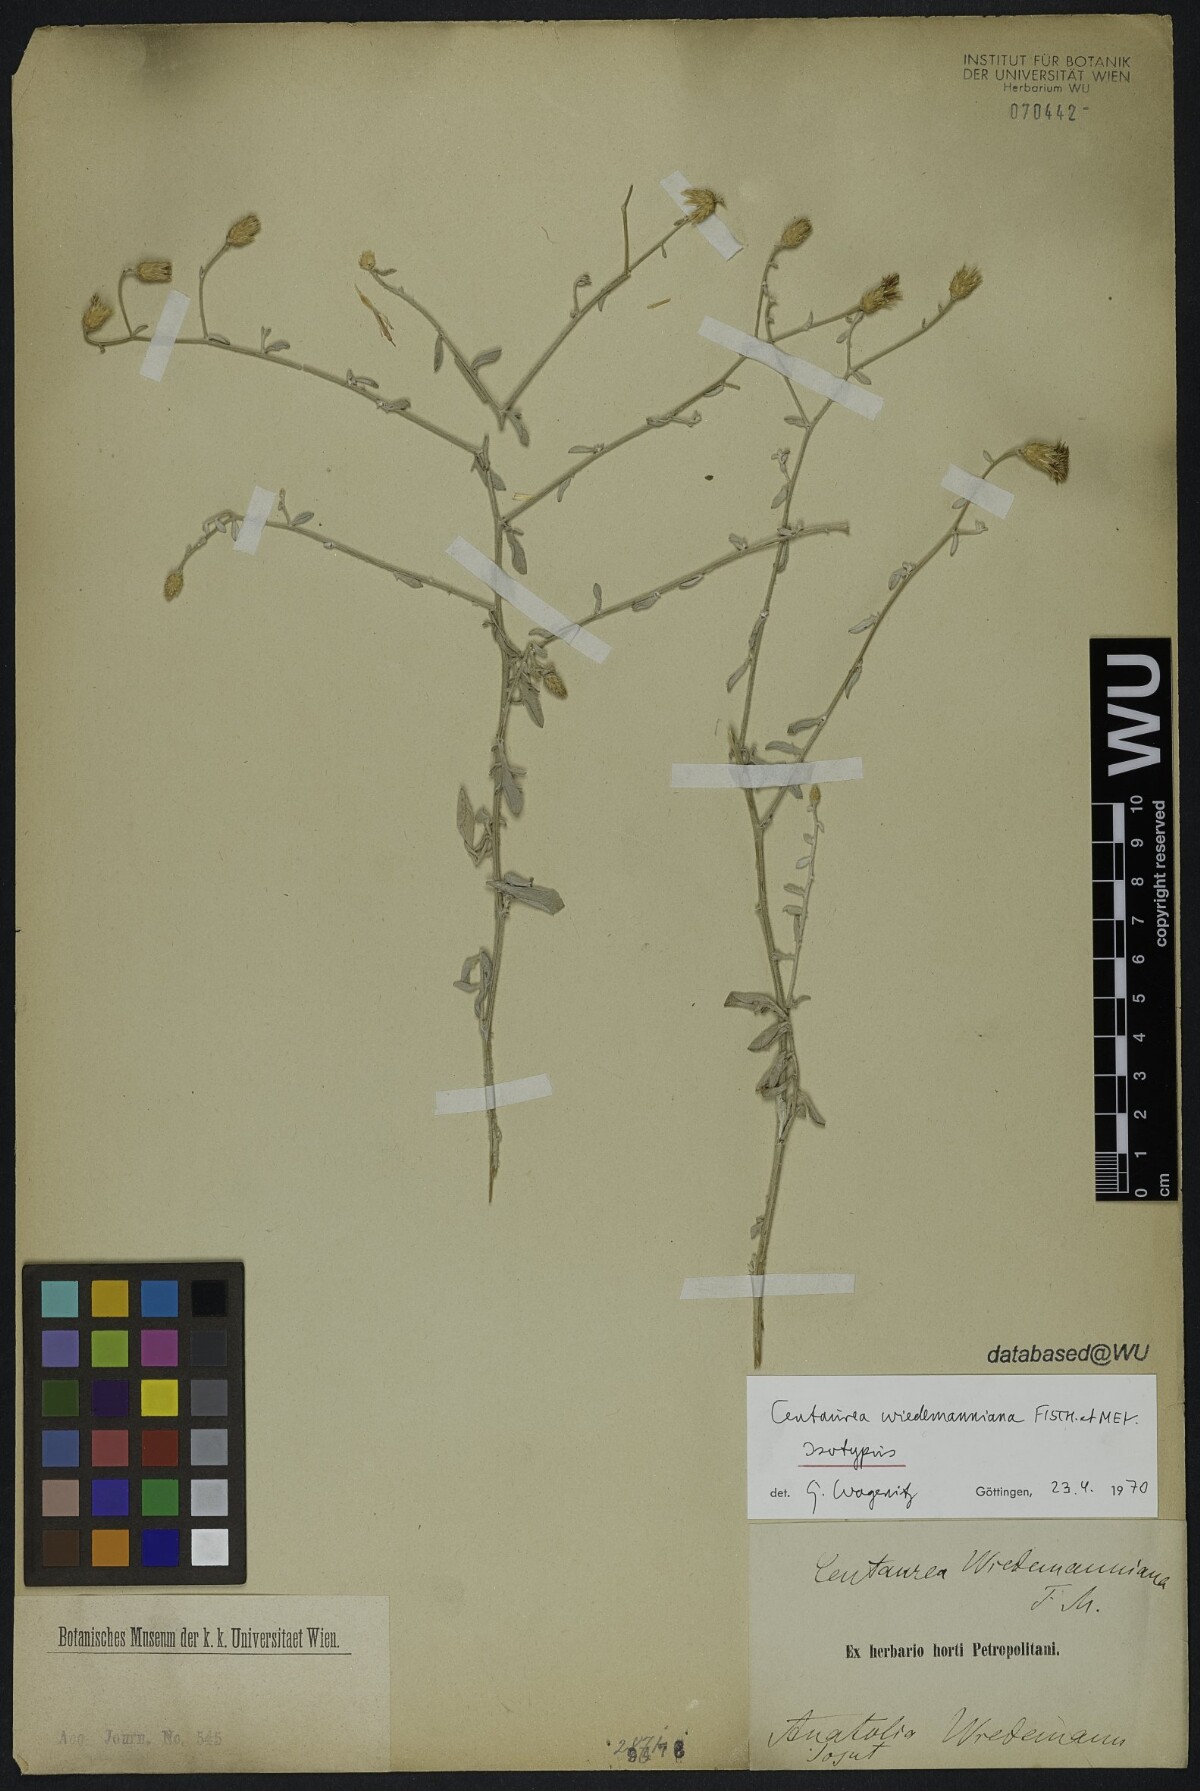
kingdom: Plantae
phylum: Tracheophyta
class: Magnoliopsida
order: Asterales
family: Asteraceae
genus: Centaurea
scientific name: Centaurea wiedemanniana
